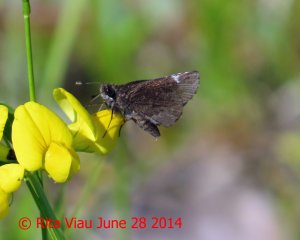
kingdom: Animalia
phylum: Arthropoda
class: Insecta
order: Lepidoptera
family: Hesperiidae
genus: Mastor
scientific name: Mastor vialis
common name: Common Roadside-Skipper
